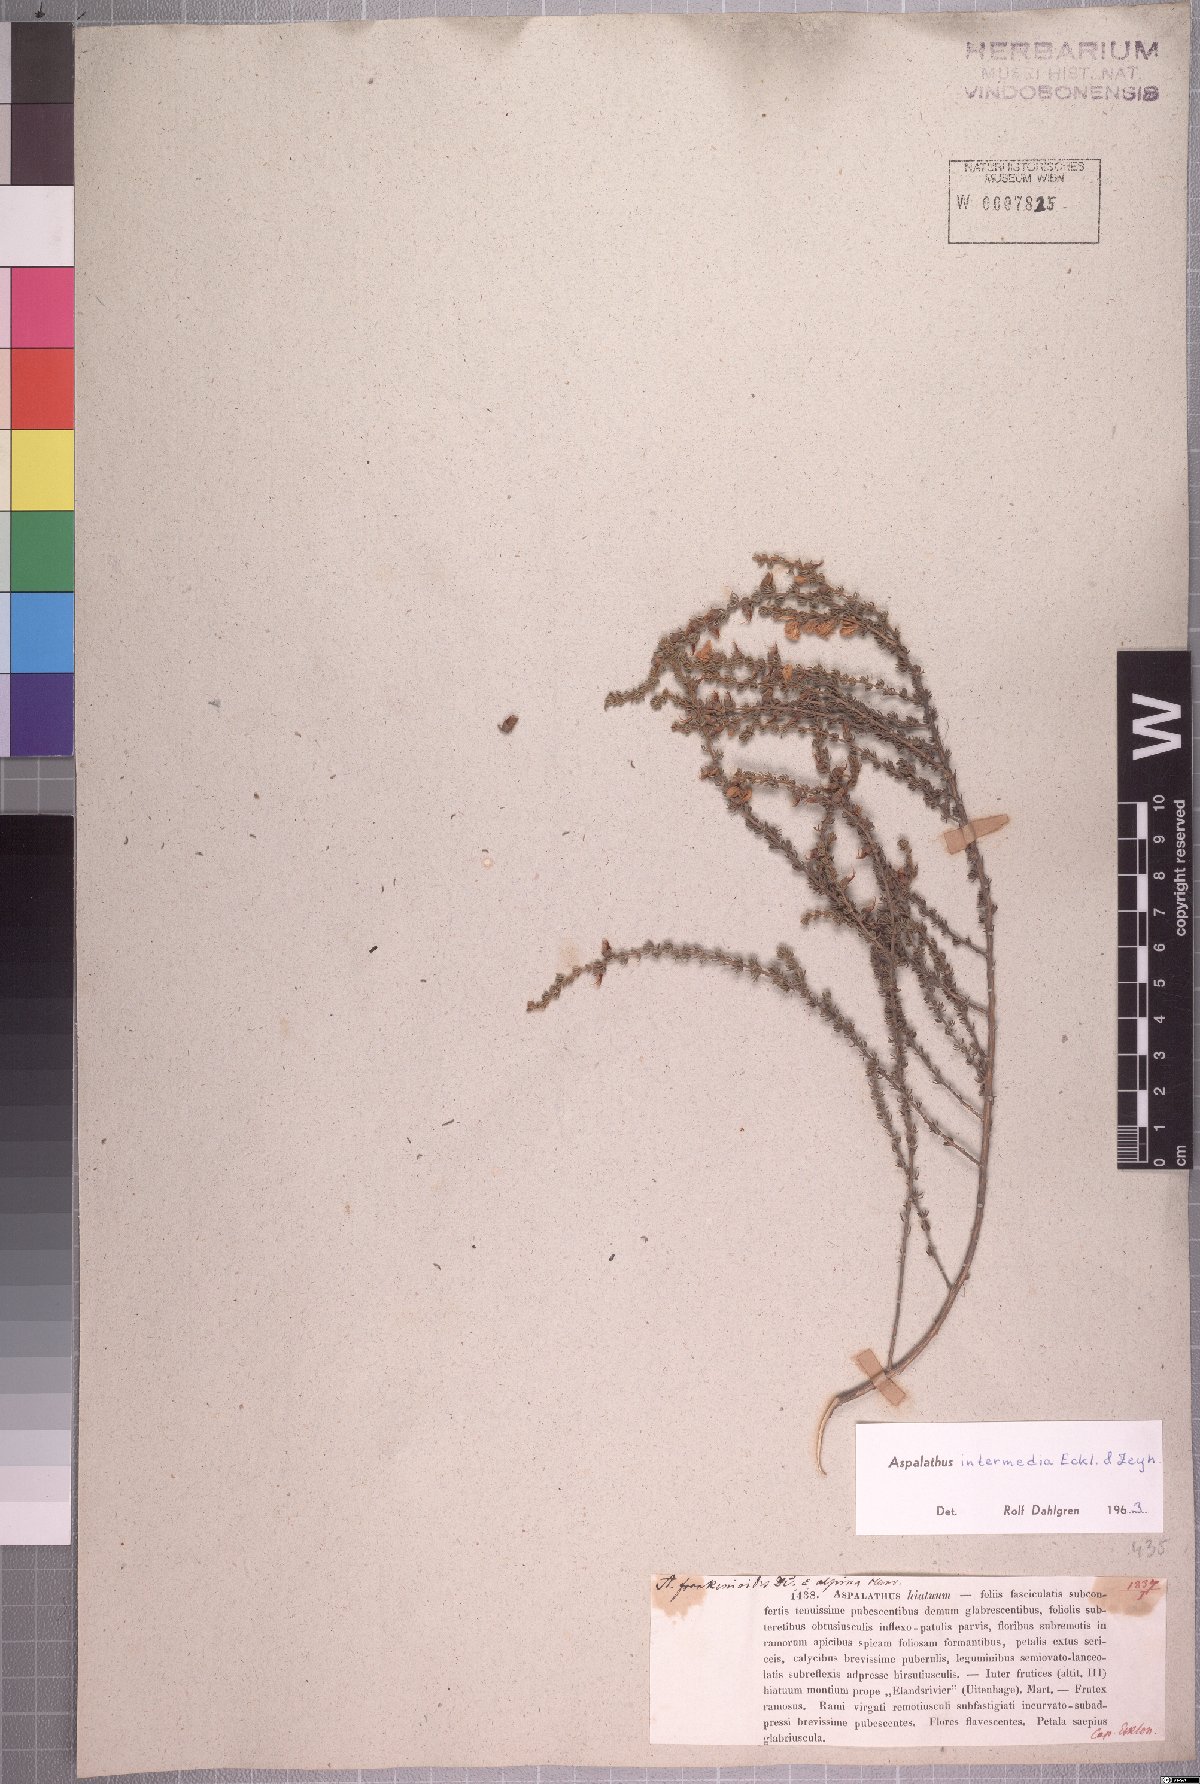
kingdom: Plantae
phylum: Tracheophyta
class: Magnoliopsida
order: Fabales
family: Fabaceae
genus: Aspalathus
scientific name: Aspalathus intermedia
